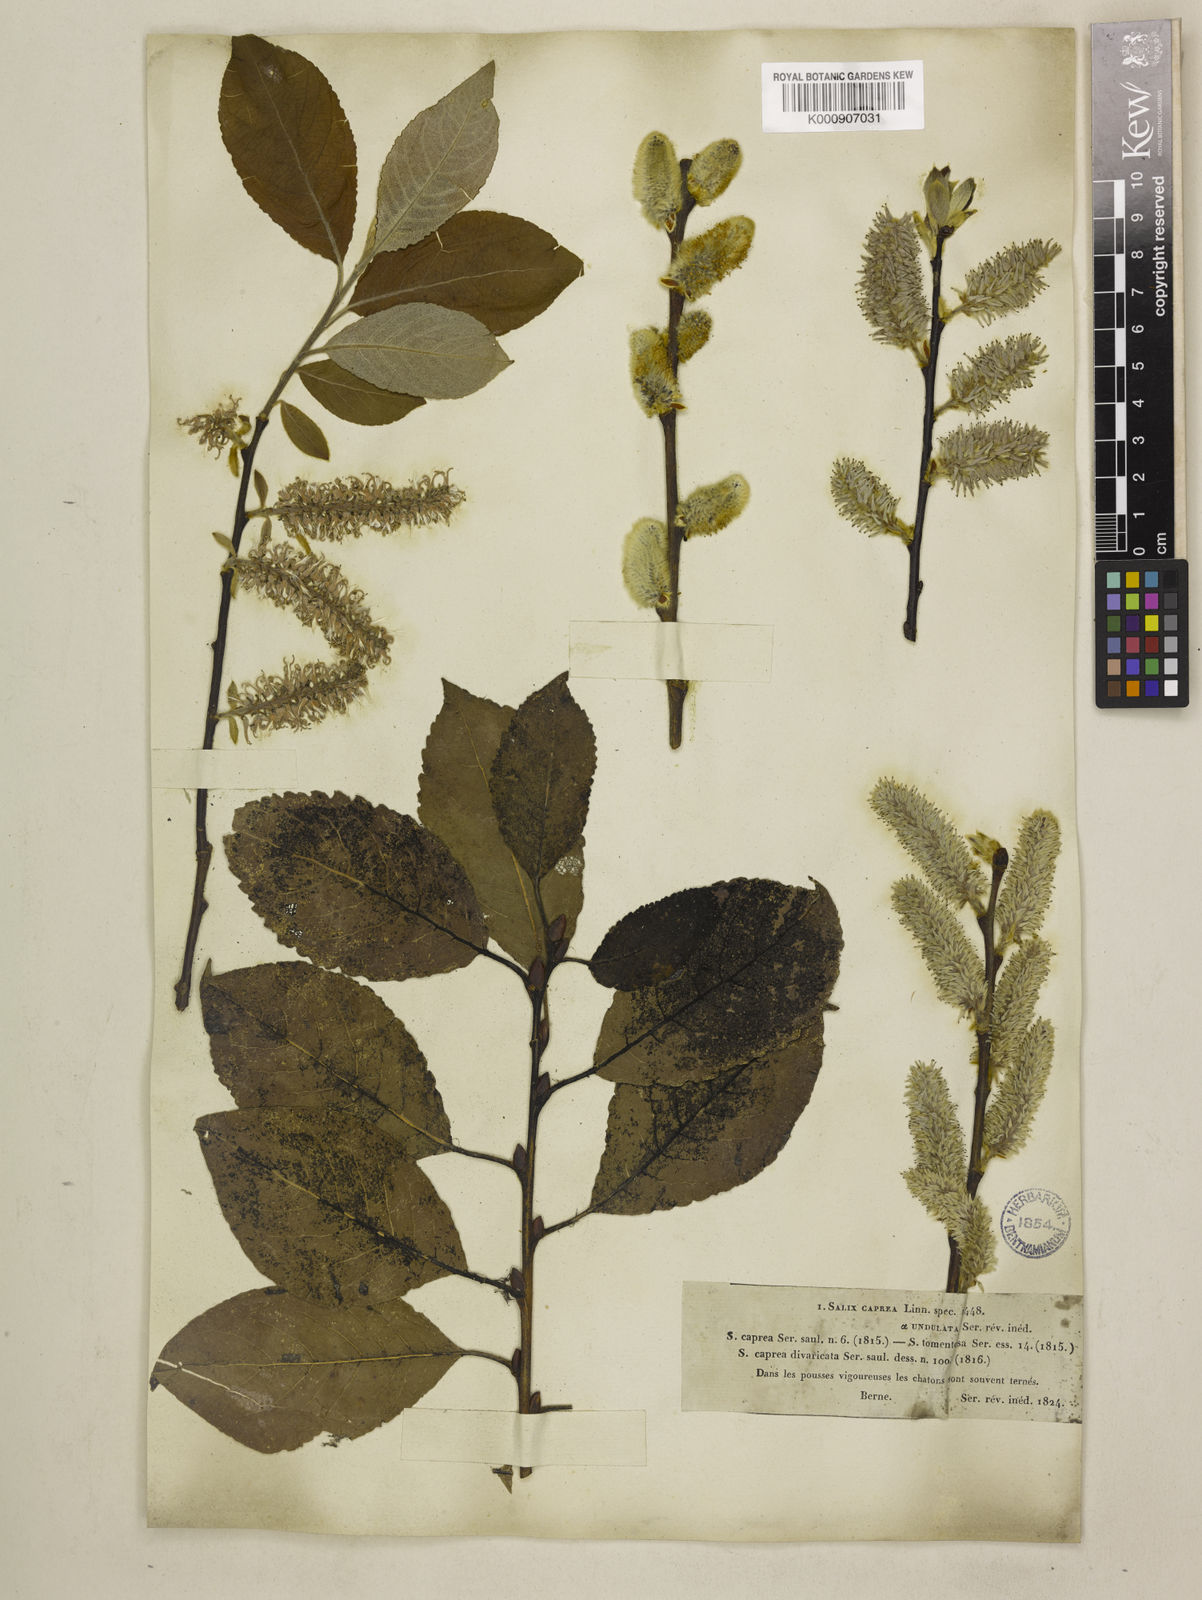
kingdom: Plantae
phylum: Tracheophyta
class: Magnoliopsida
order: Malpighiales
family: Salicaceae
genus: Salix
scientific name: Salix caprea
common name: Goat willow
